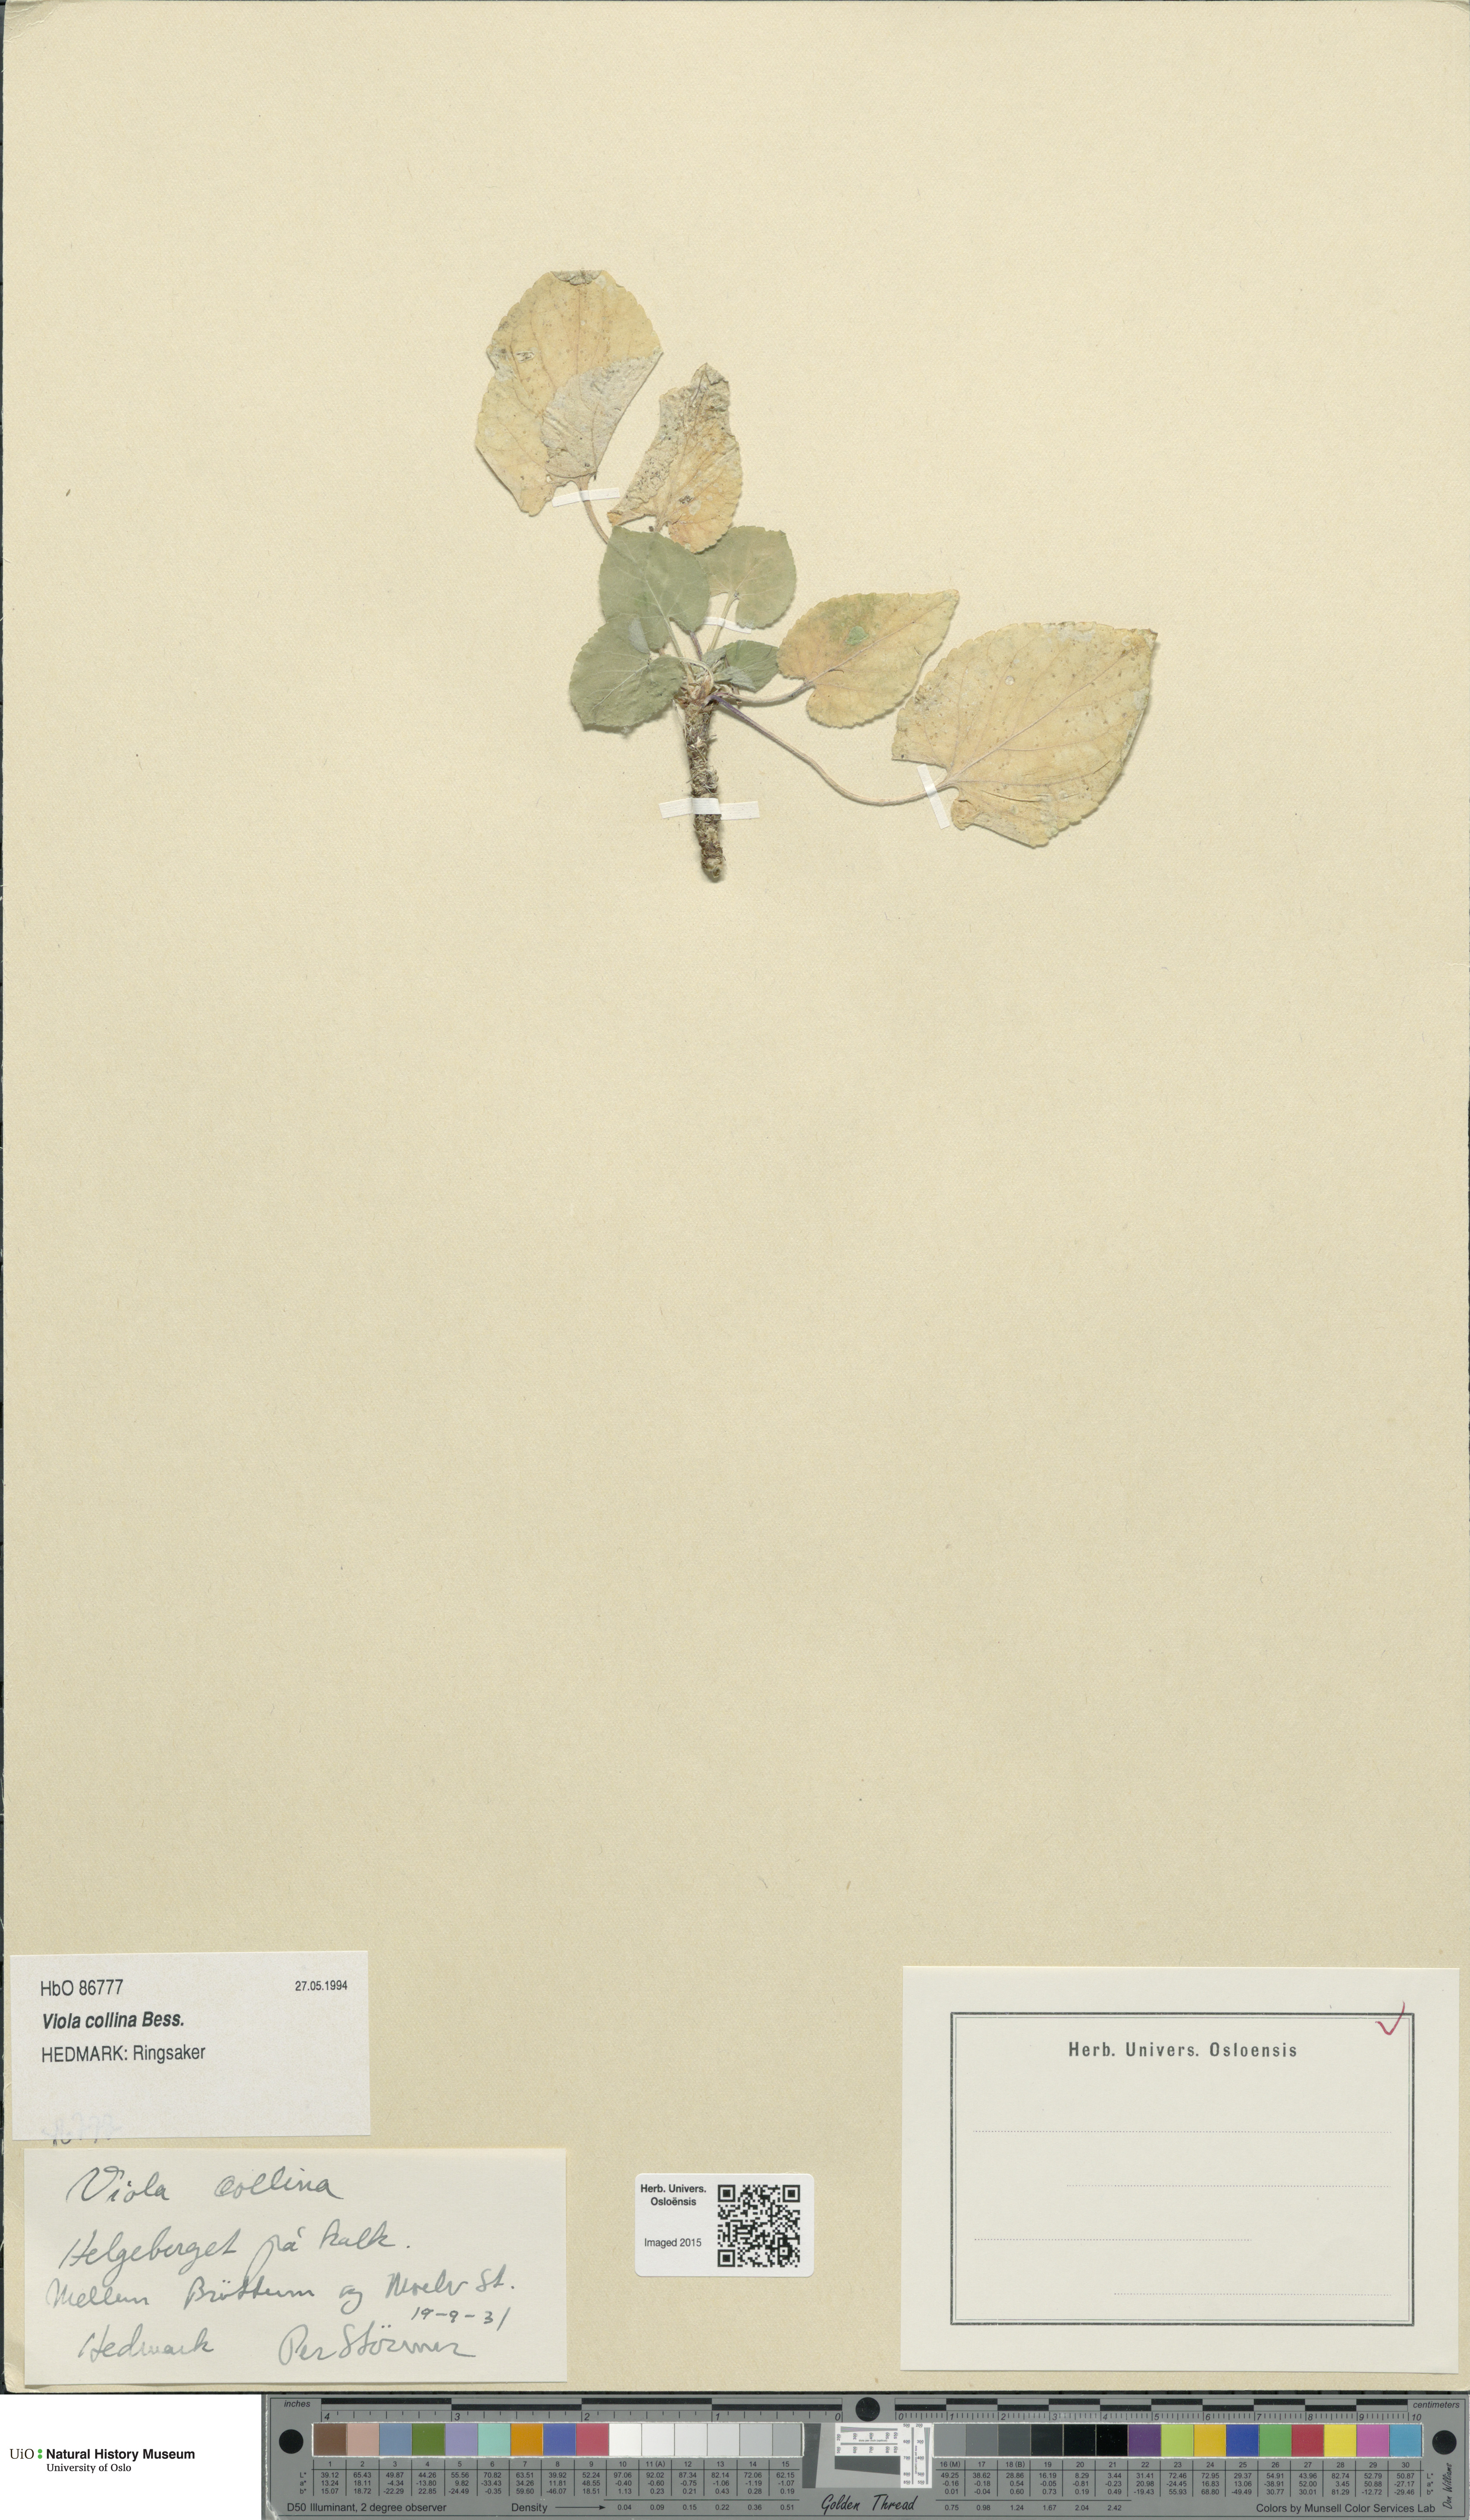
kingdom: Plantae
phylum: Tracheophyta
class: Magnoliopsida
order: Malpighiales
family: Violaceae
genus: Viola
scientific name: Viola collina
